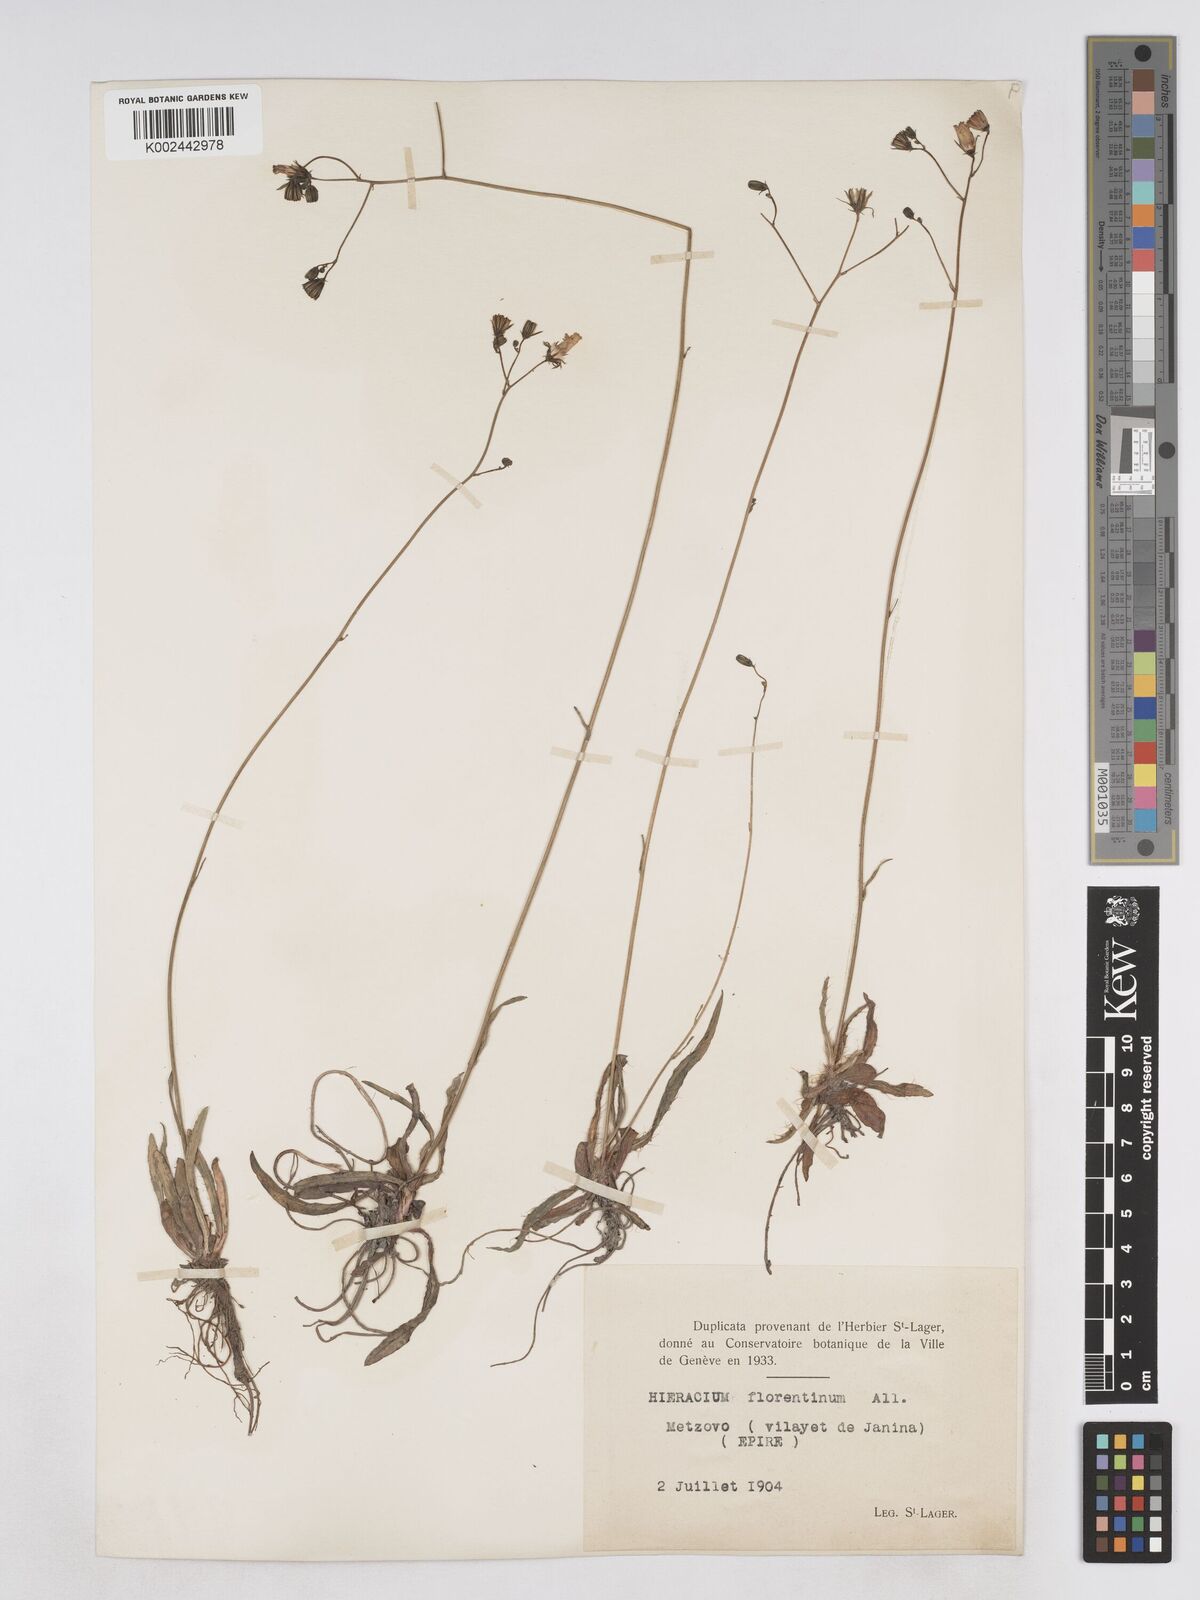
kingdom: Plantae
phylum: Tracheophyta
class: Magnoliopsida
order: Asterales
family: Asteraceae
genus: Pilosella
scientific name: Pilosella piloselloides
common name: Glaucous king-devil
